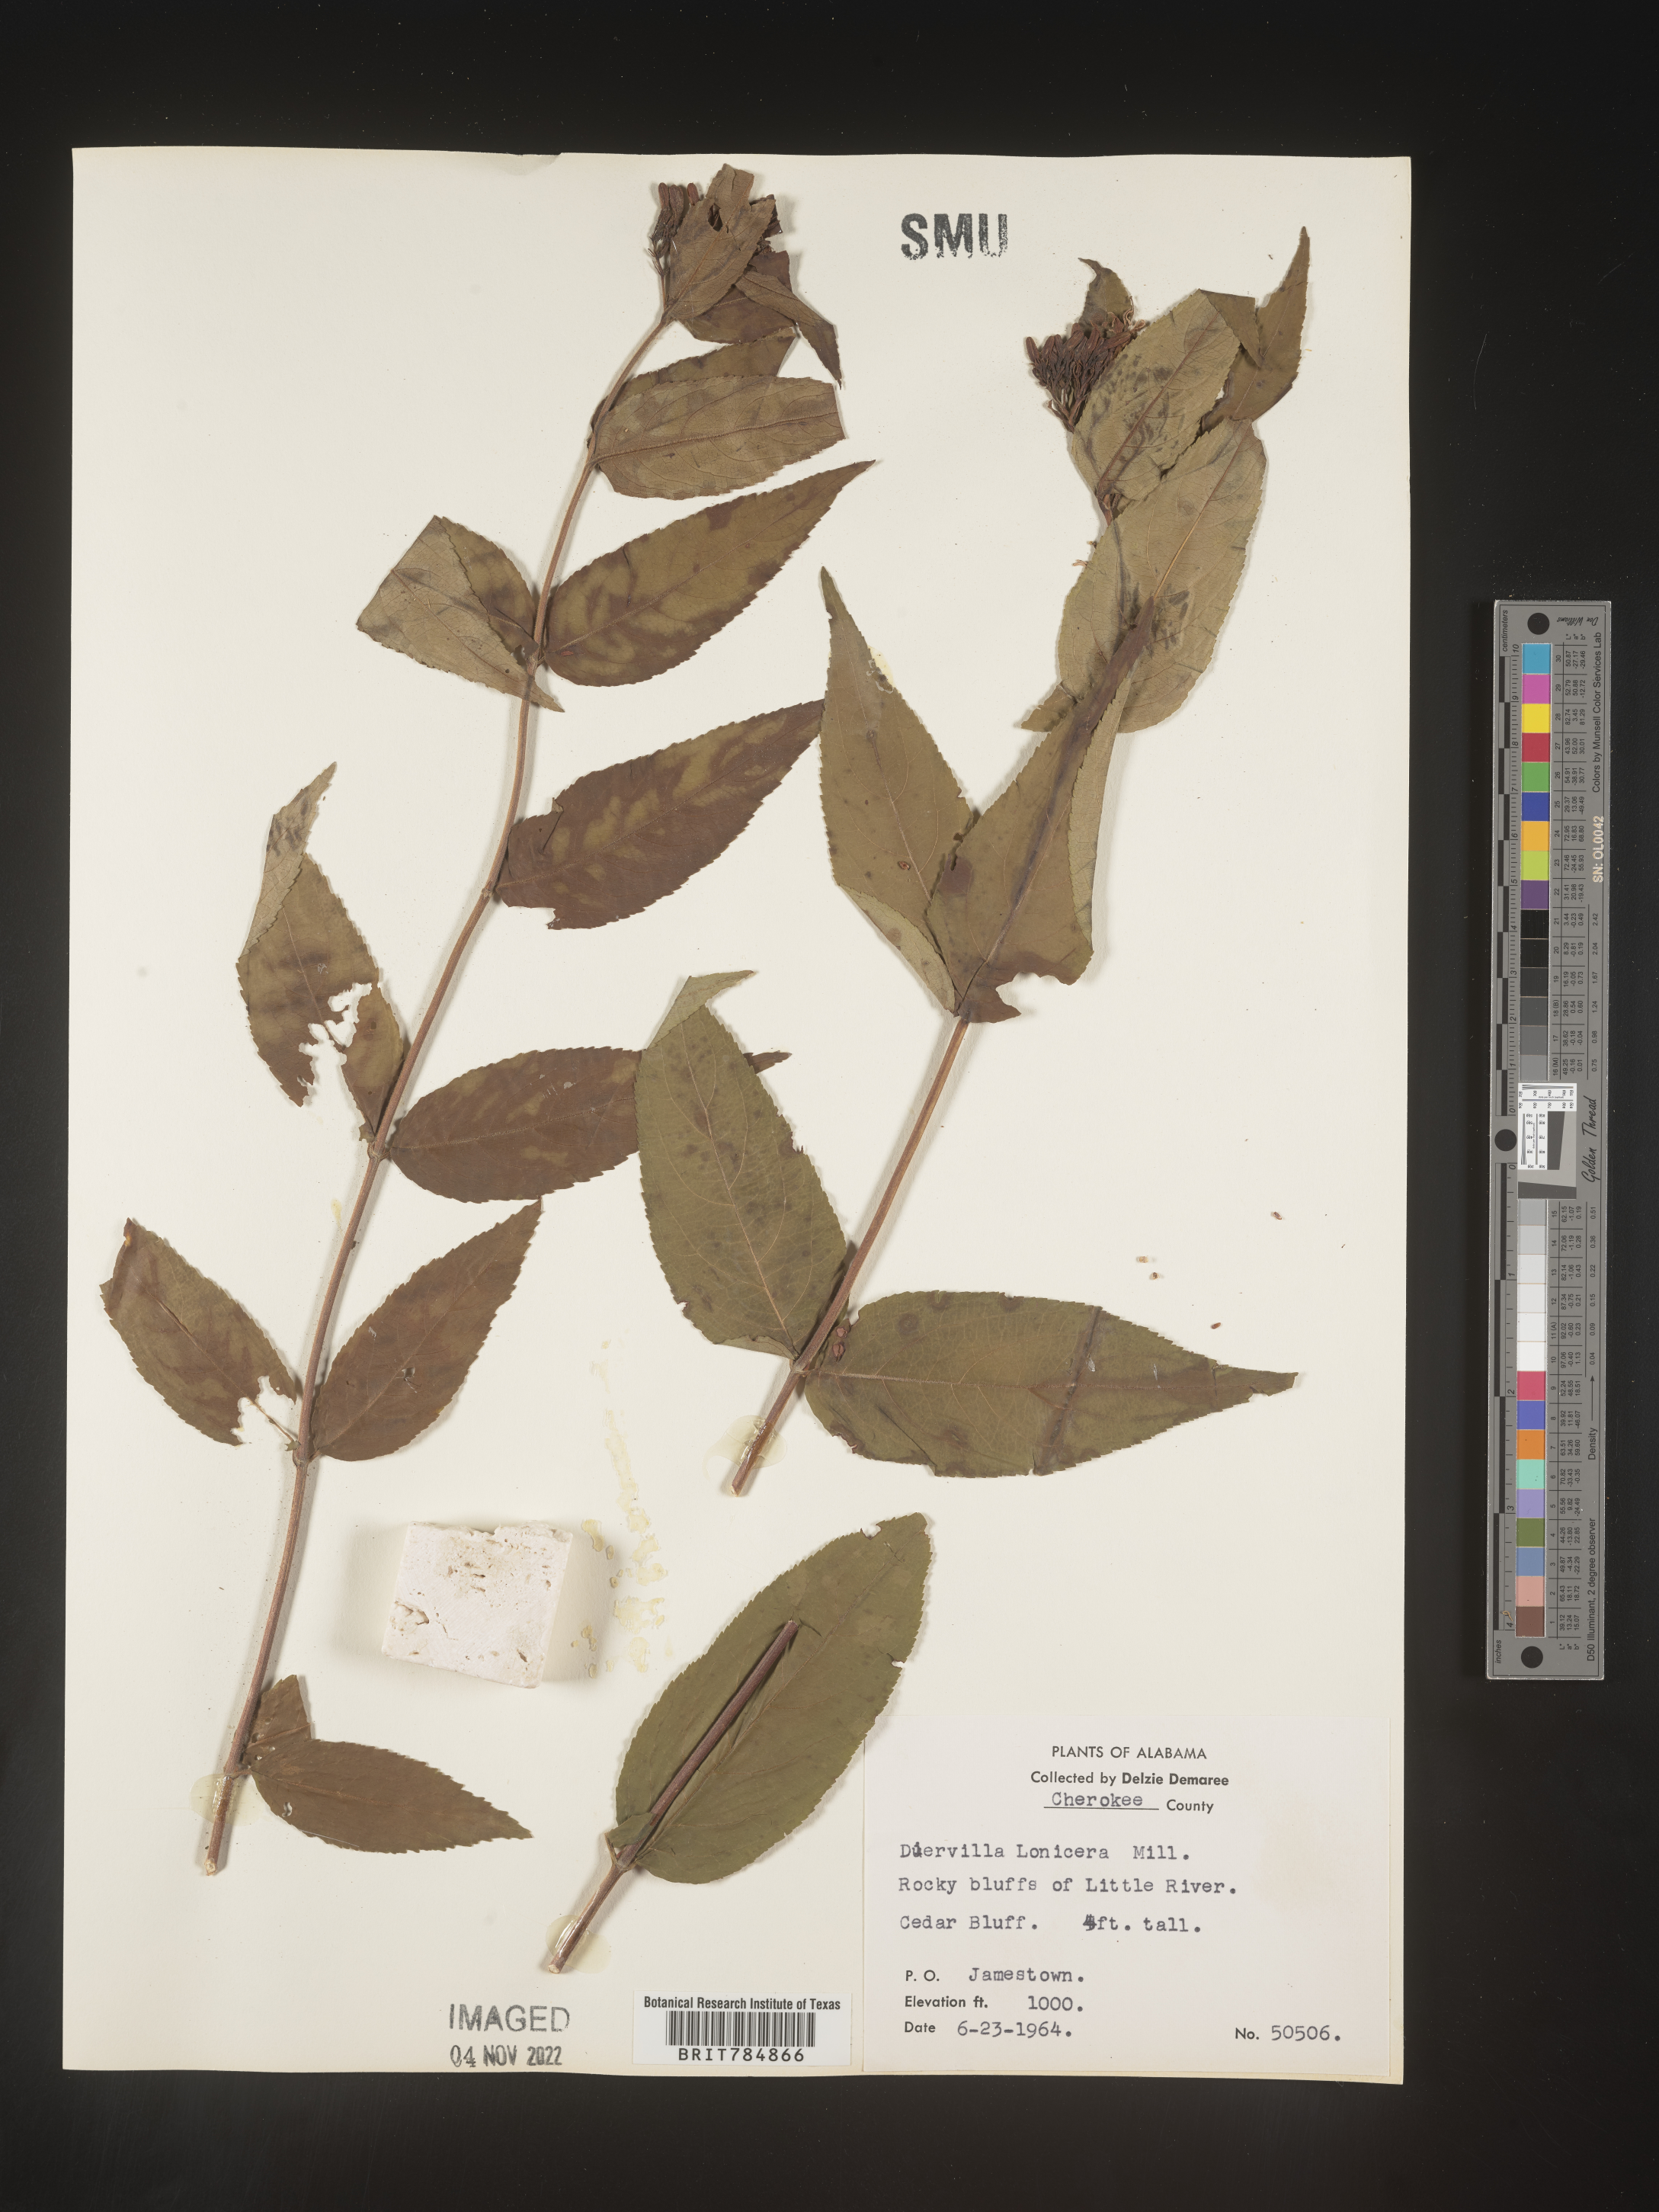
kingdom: Plantae
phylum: Tracheophyta
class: Magnoliopsida
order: Dipsacales
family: Caprifoliaceae
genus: Diervilla
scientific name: Diervilla lonicera
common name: Bush-honeysuckle
